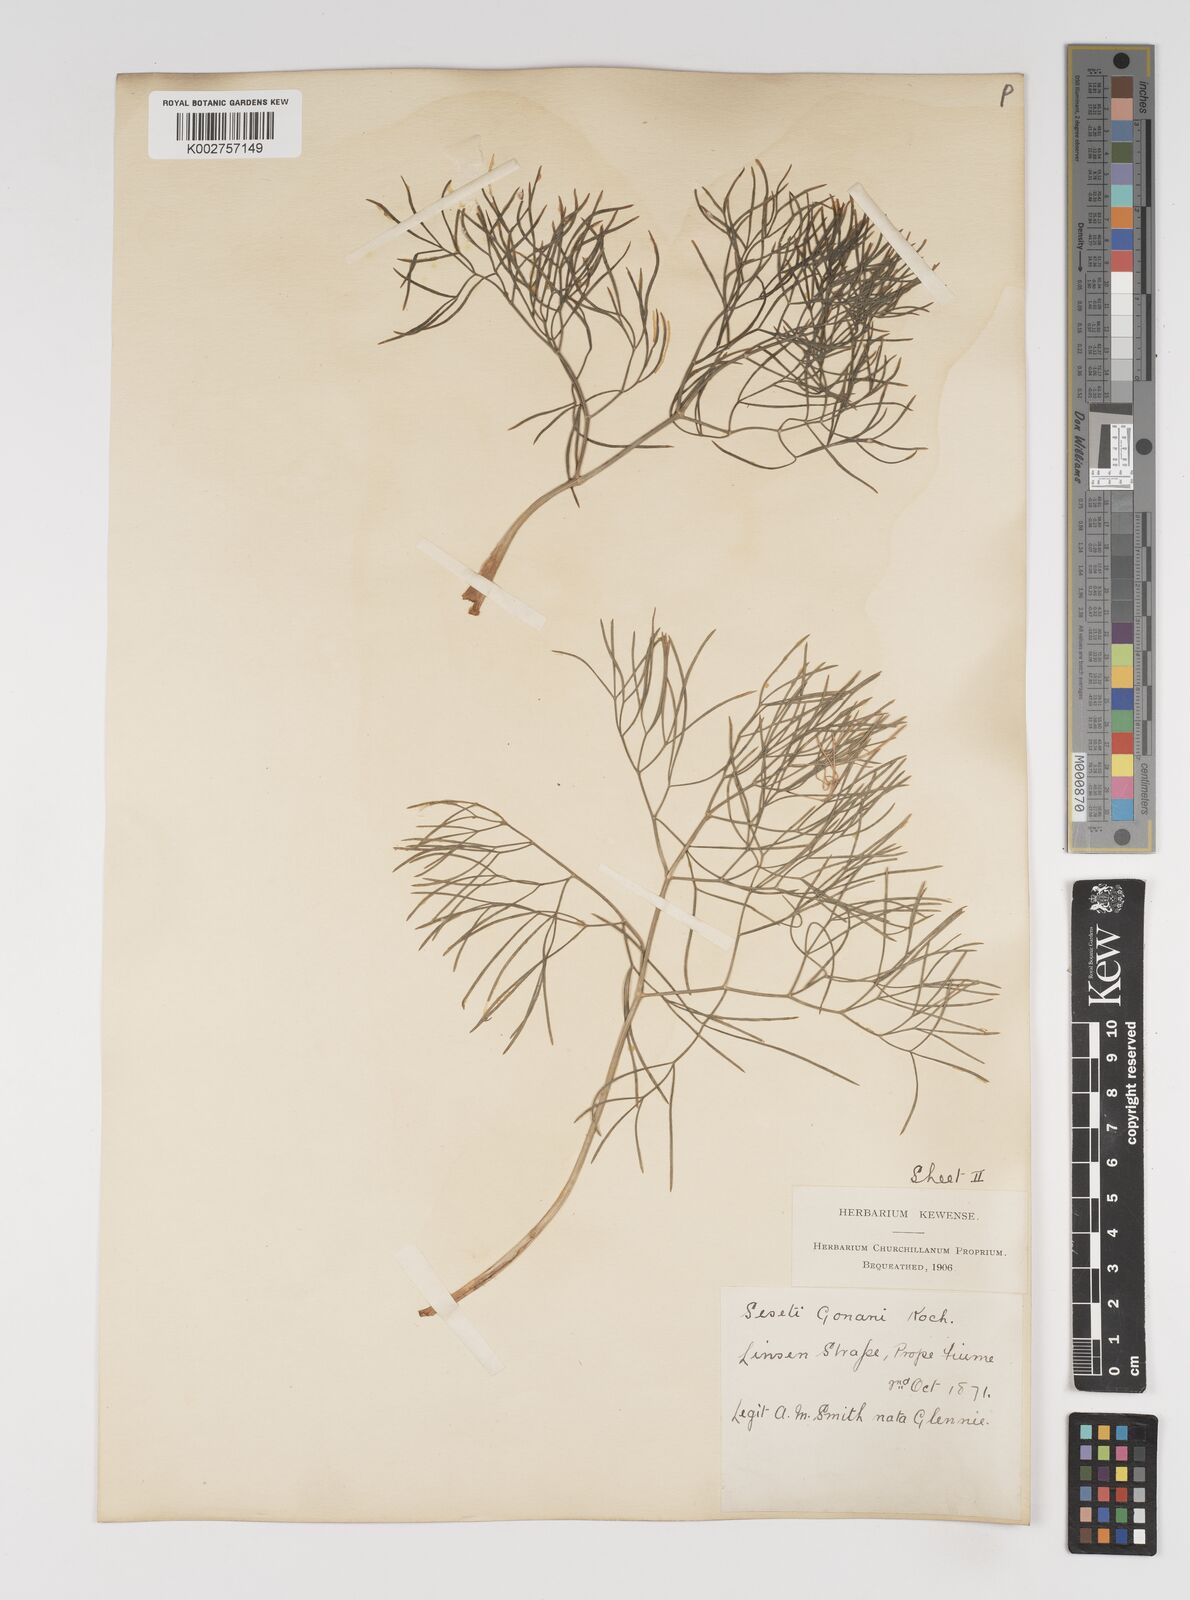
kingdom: Plantae
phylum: Tracheophyta
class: Magnoliopsida
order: Apiales
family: Apiaceae
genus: Seseli
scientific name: Seseli longifolium
